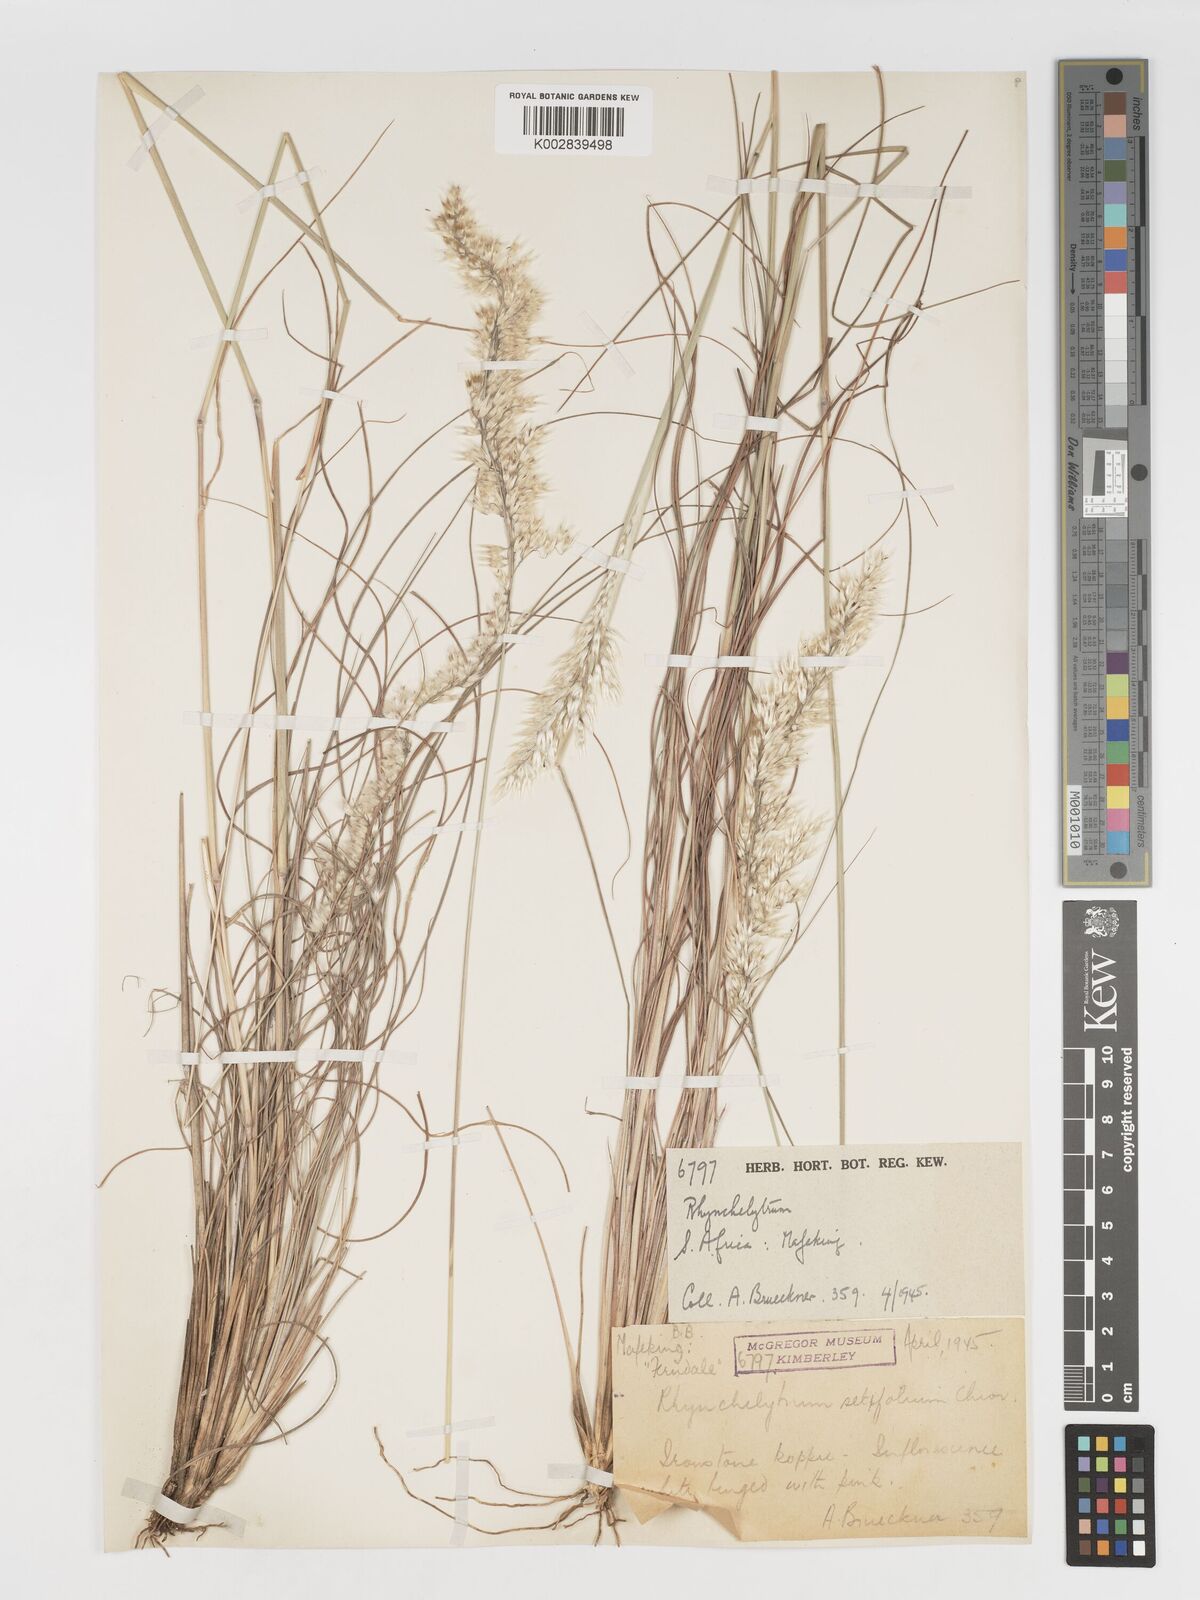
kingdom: Plantae
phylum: Tracheophyta
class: Liliopsida
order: Poales
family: Poaceae
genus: Melinis
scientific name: Melinis nerviglumis
